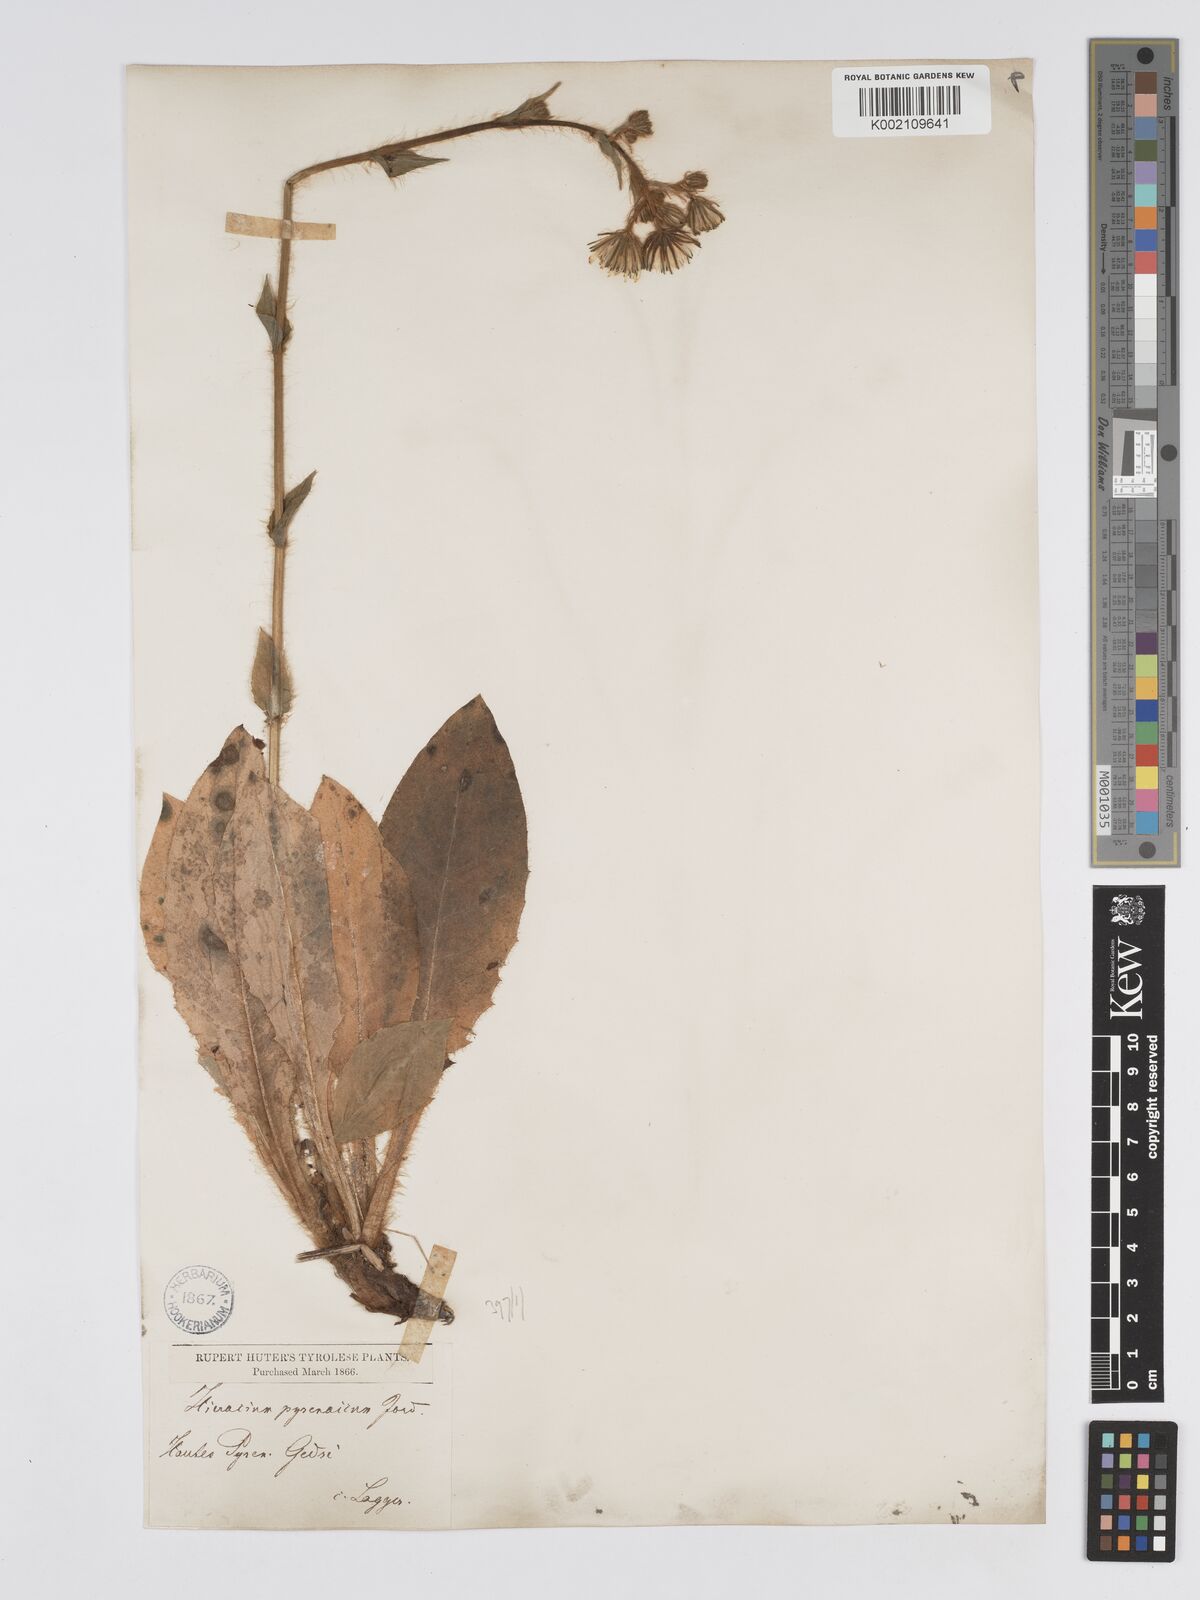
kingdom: Plantae
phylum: Tracheophyta
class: Magnoliopsida
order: Asterales
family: Asteraceae
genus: Hieracium
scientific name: Hieracium nobile
